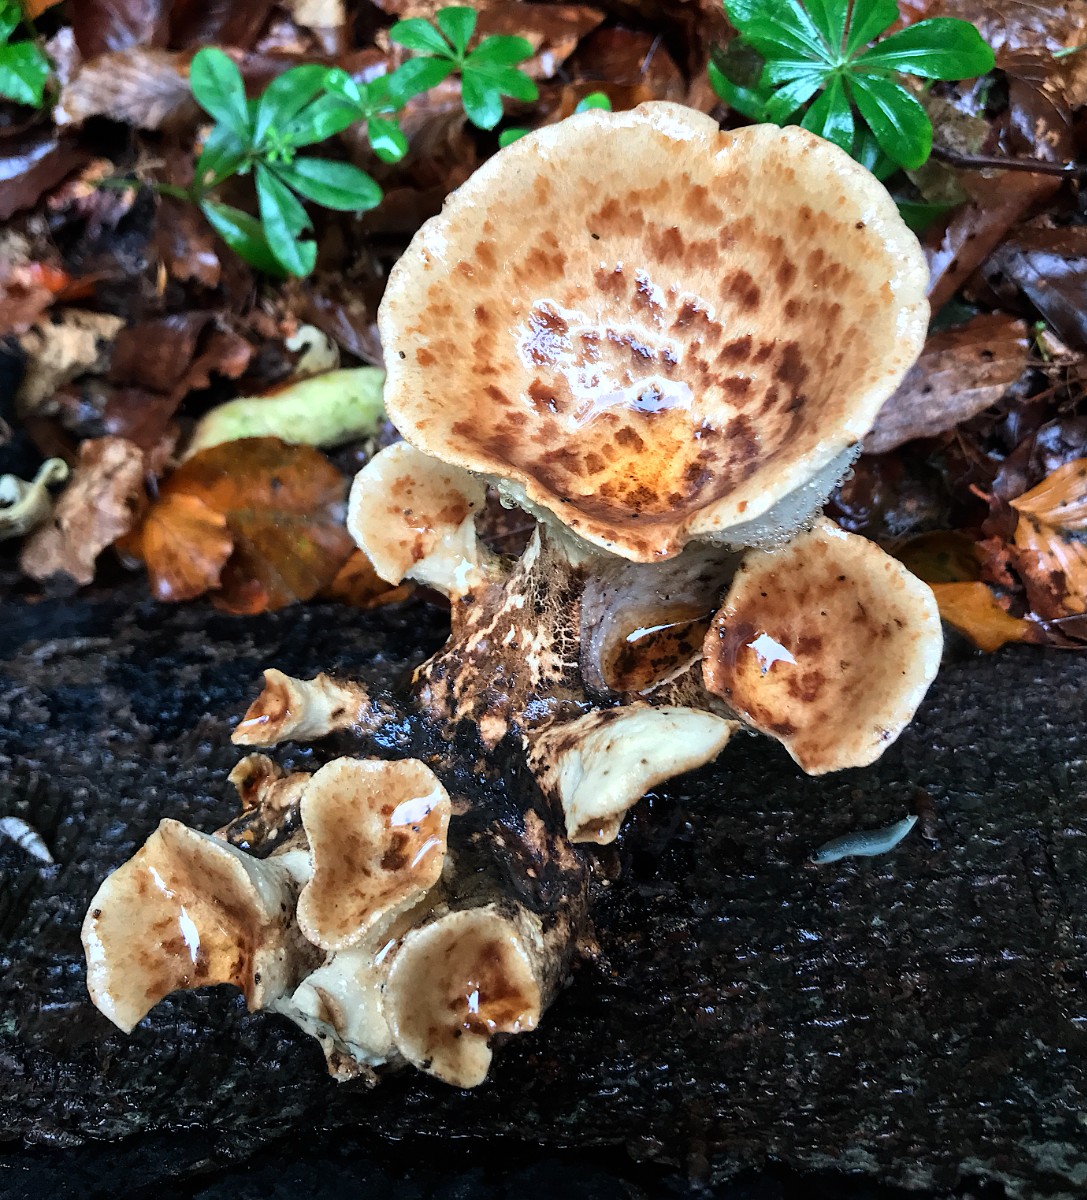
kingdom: Fungi
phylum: Basidiomycota
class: Agaricomycetes
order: Polyporales
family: Polyporaceae
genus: Cerioporus
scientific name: Cerioporus squamosus
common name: skællet stilkporesvamp
